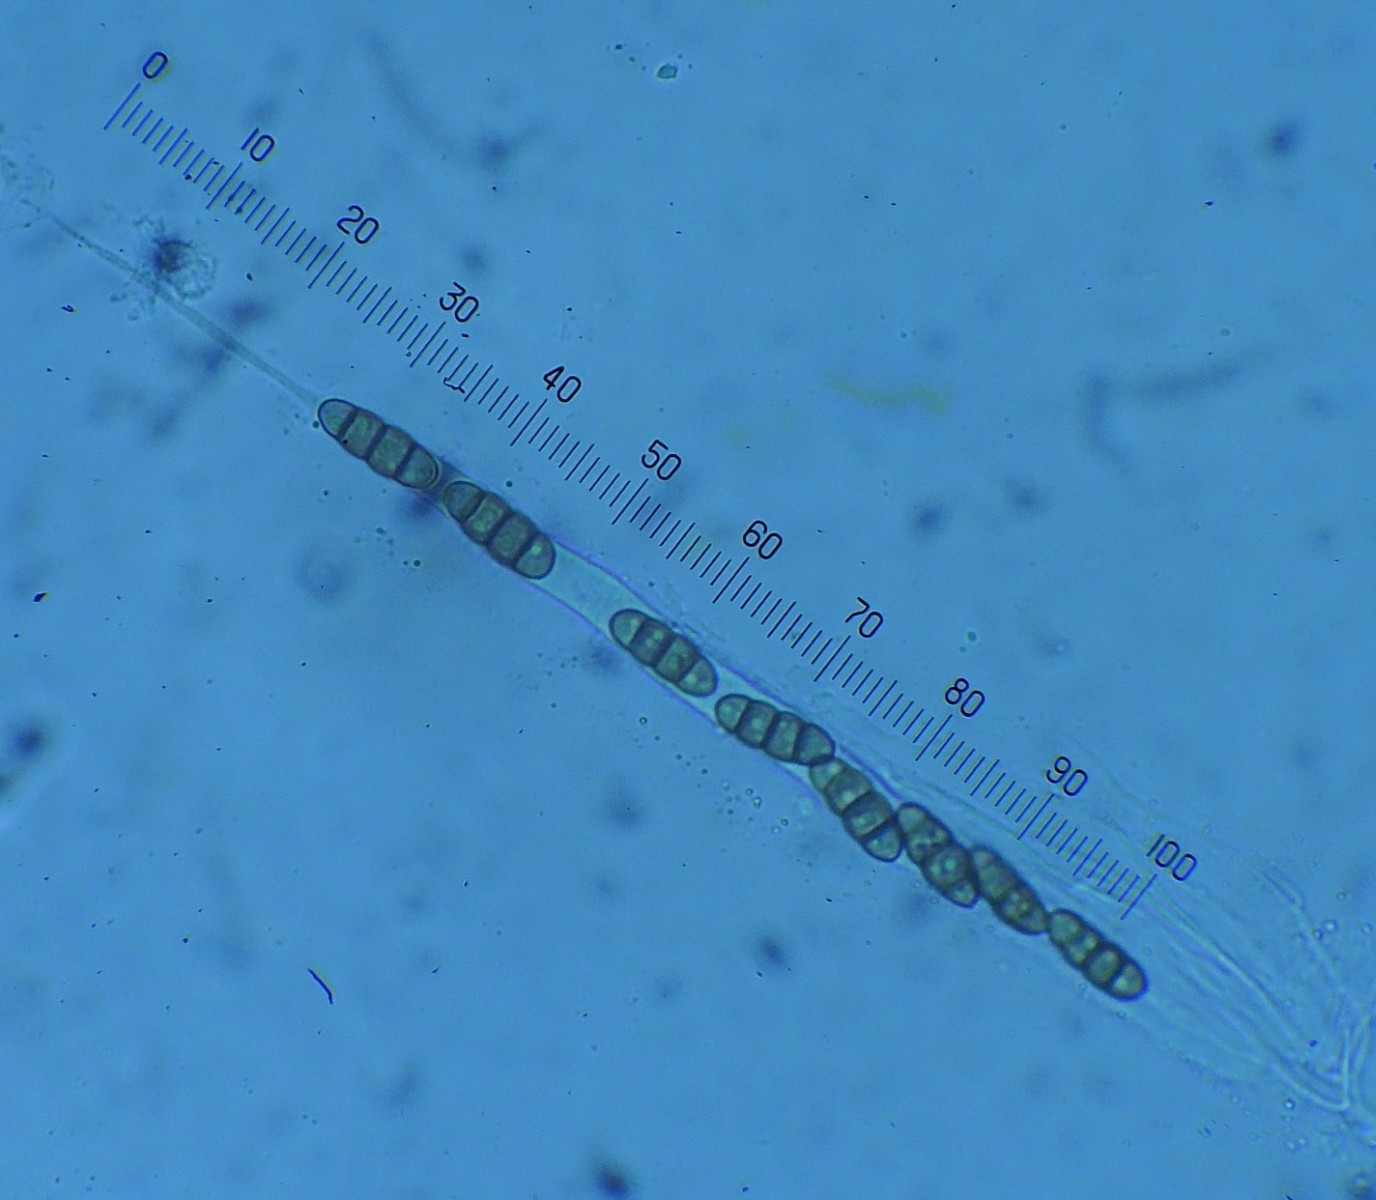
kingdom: Fungi
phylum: Ascomycota
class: Dothideomycetes
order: Pleosporales
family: Melanommataceae
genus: Melanomma
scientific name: Melanomma
